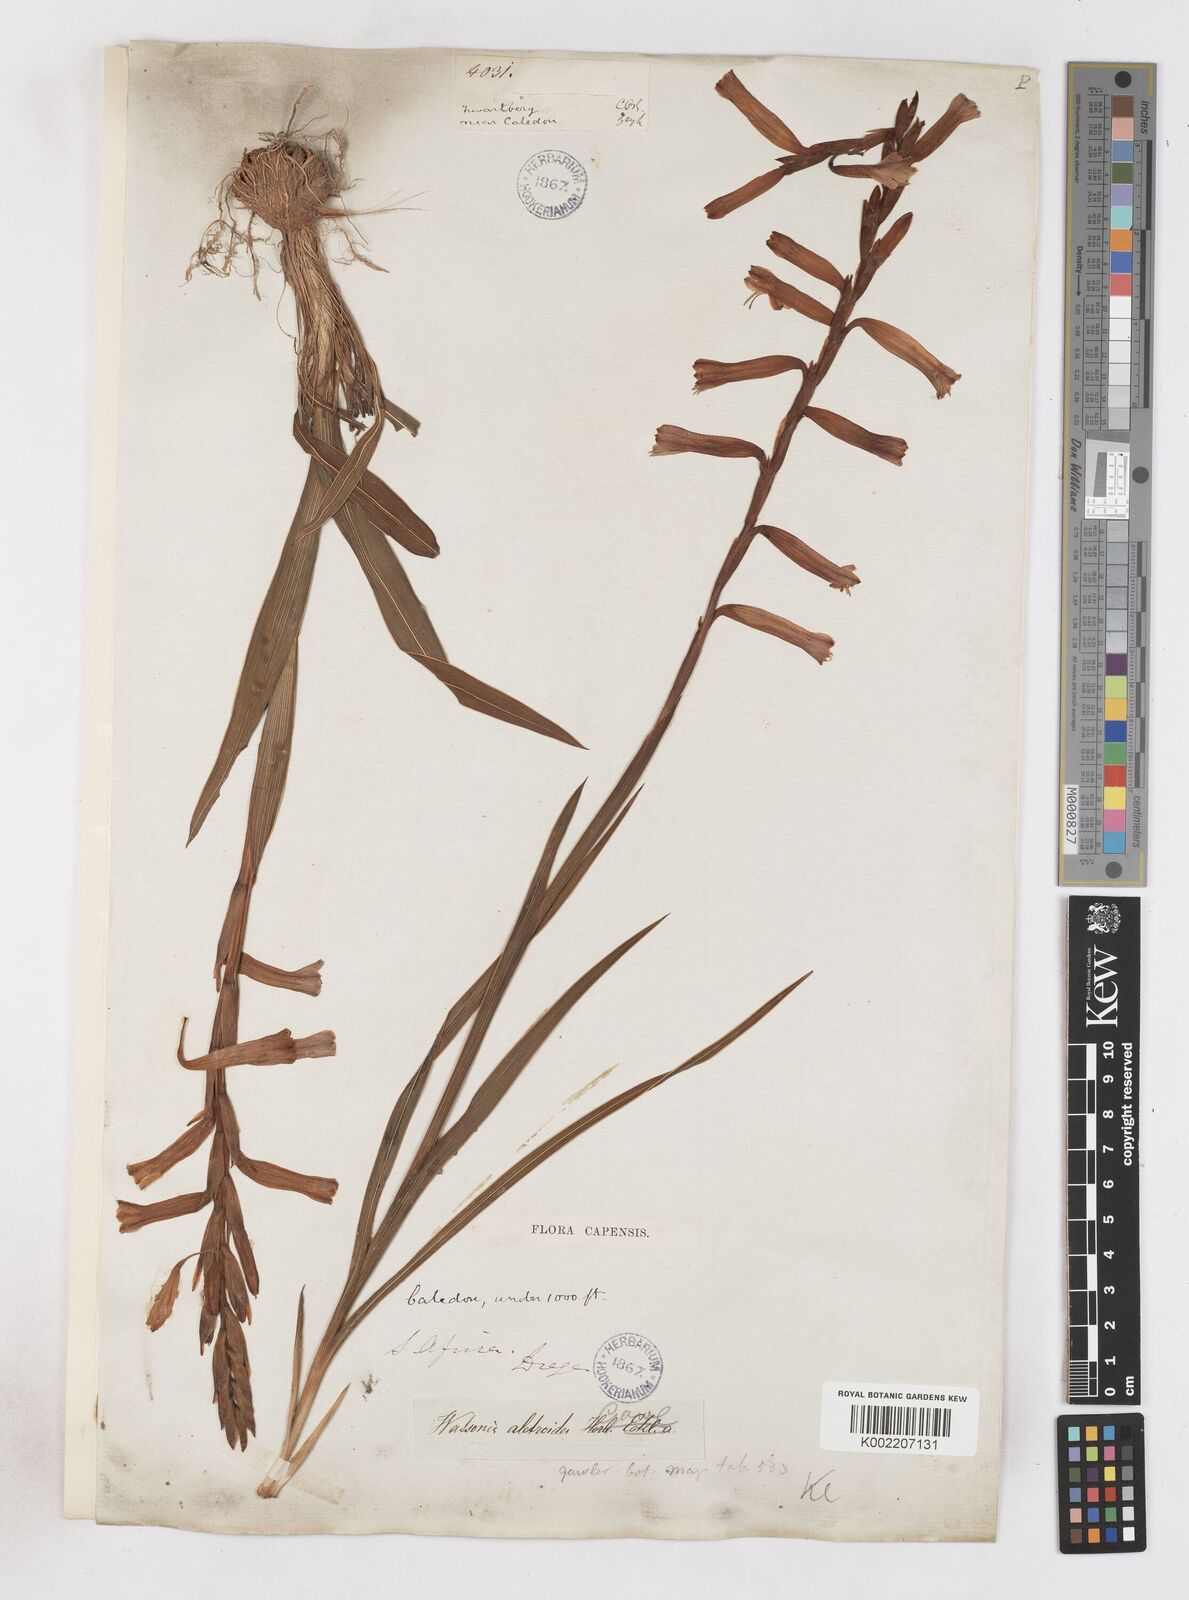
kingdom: Plantae
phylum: Tracheophyta
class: Liliopsida
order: Asparagales
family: Iridaceae
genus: Watsonia
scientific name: Watsonia aletroides
